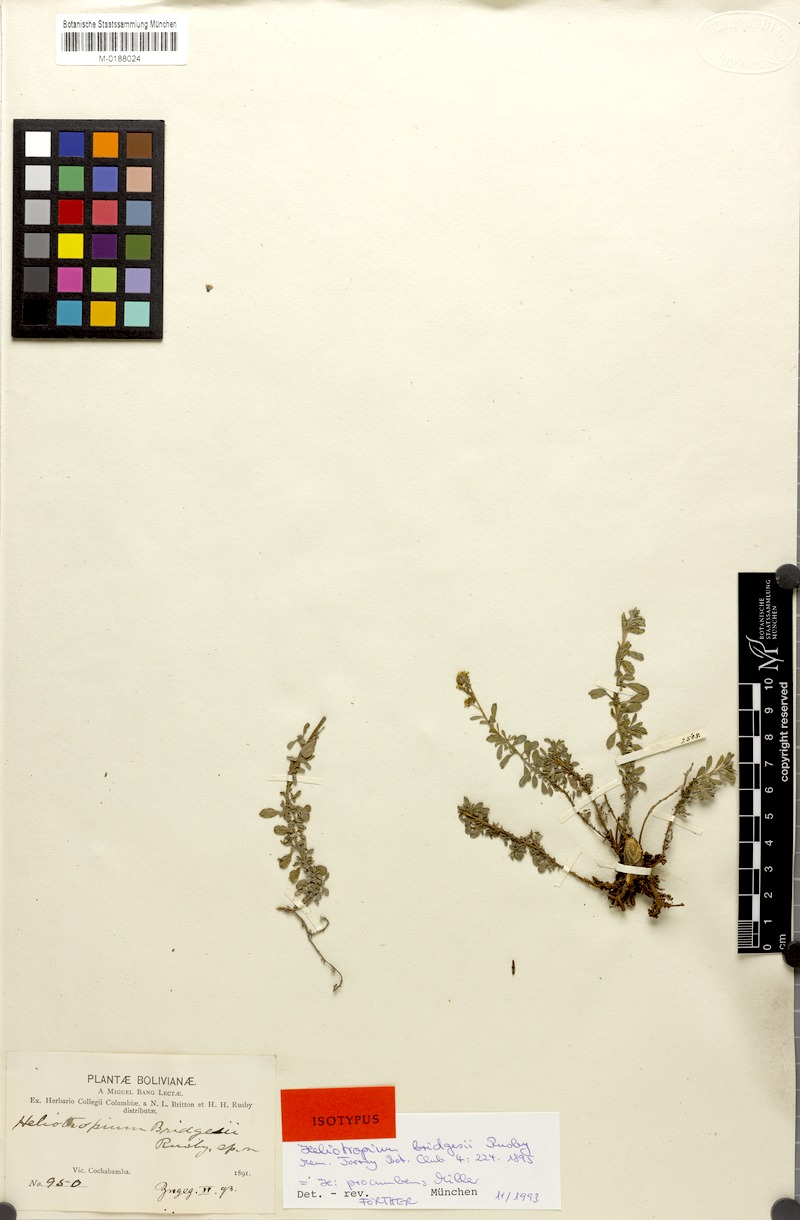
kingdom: Plantae
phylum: Tracheophyta
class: Magnoliopsida
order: Boraginales
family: Heliotropiaceae
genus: Euploca
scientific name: Euploca procumbens
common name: Fourspike heliotrope
